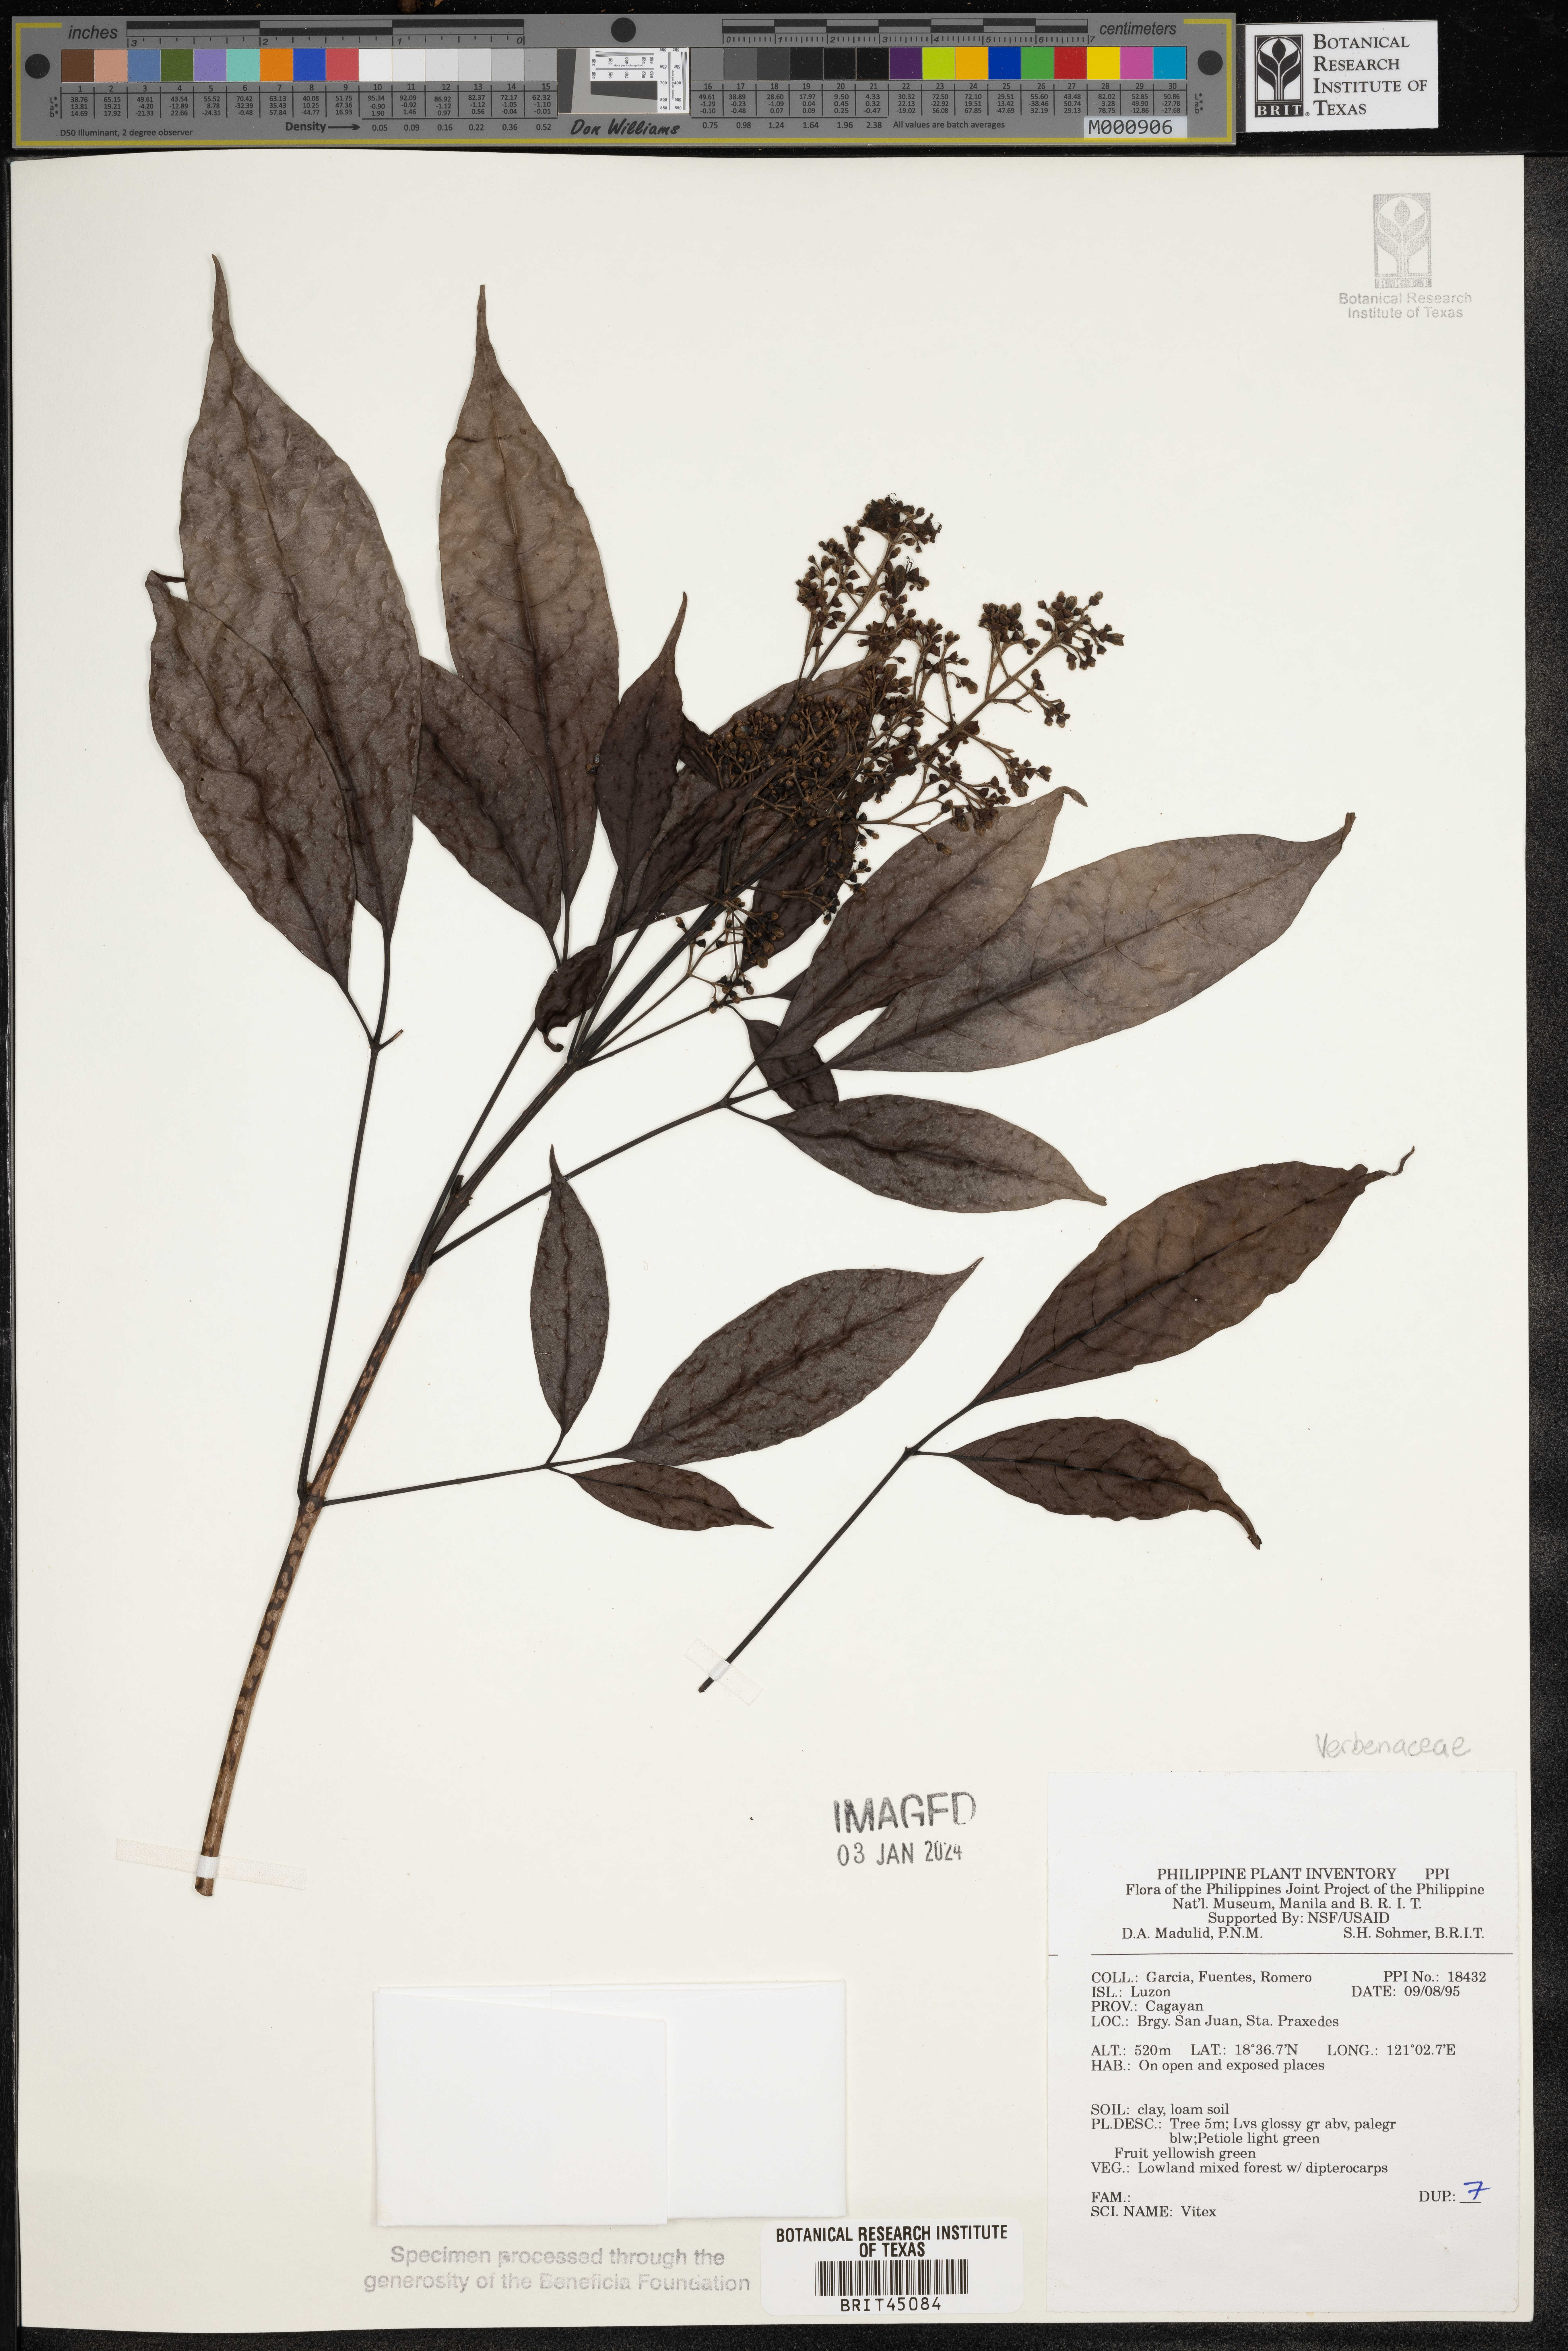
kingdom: Plantae
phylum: Tracheophyta
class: Magnoliopsida
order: Lamiales
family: Lamiaceae
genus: Vitex
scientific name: Vitex
